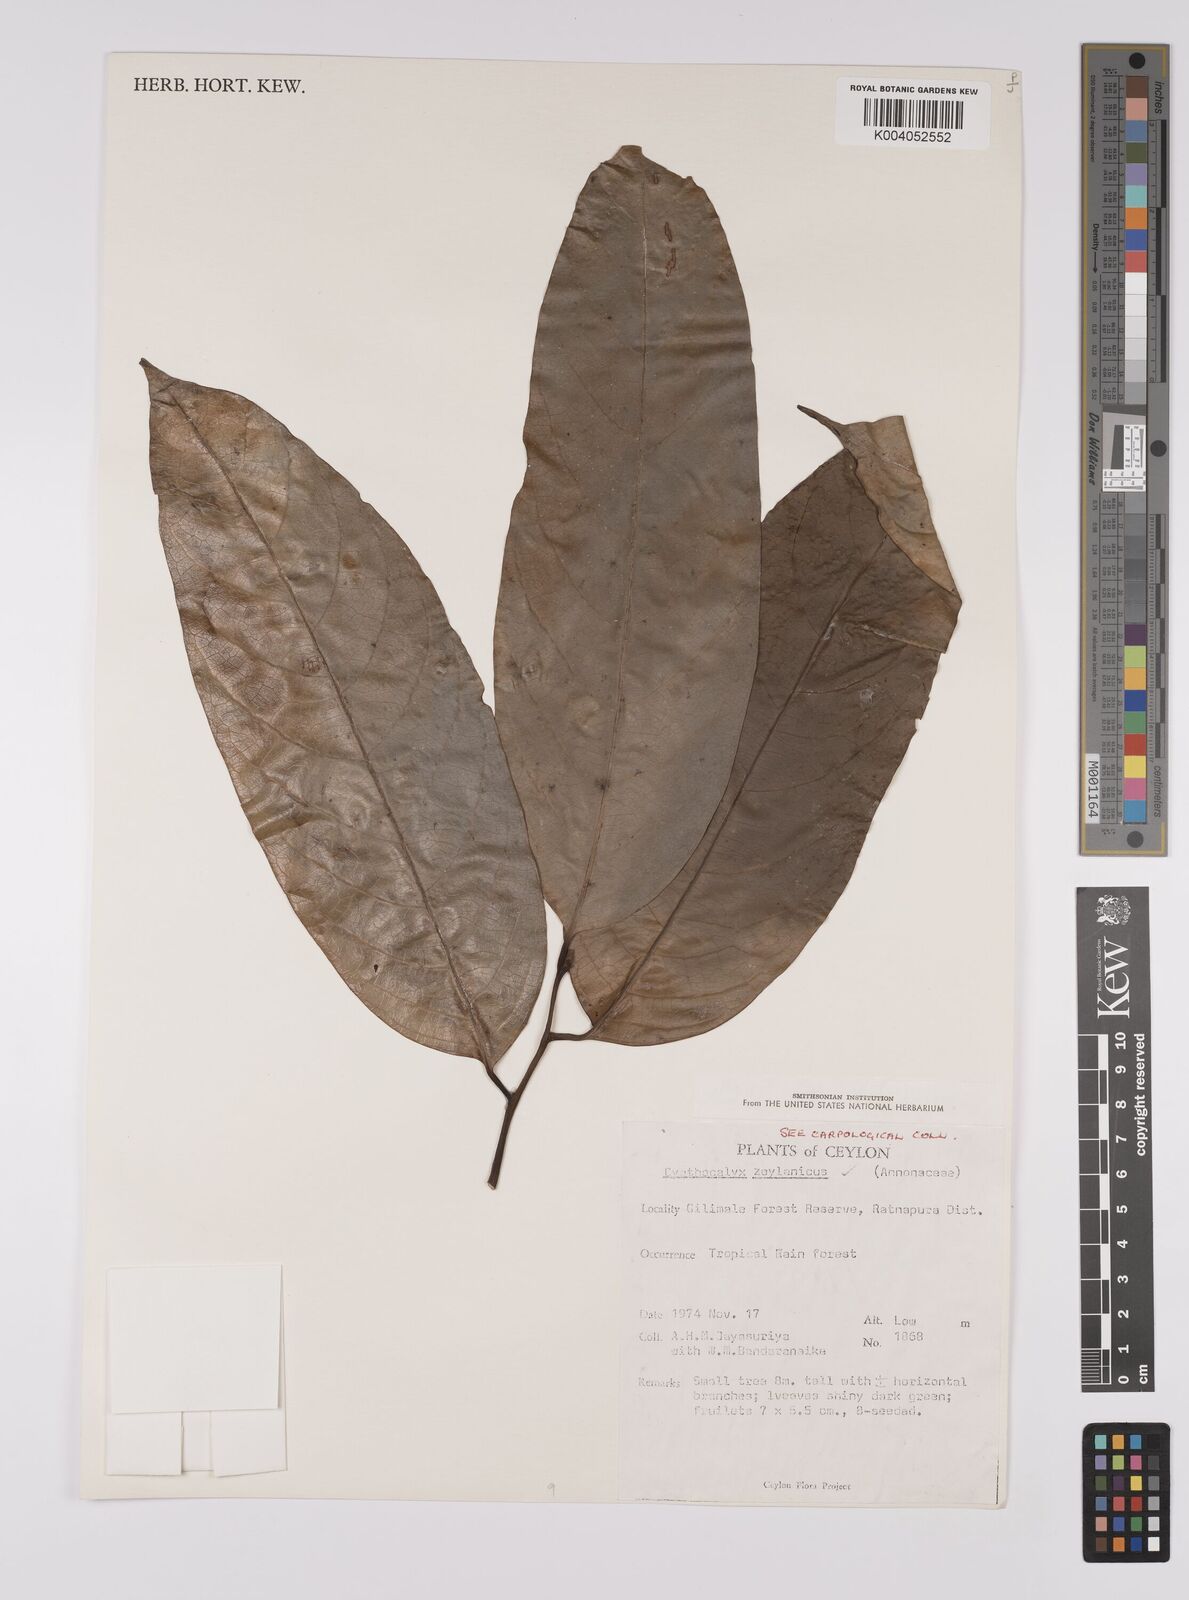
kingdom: Plantae
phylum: Tracheophyta
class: Magnoliopsida
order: Magnoliales
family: Annonaceae
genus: Cyathocalyx
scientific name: Cyathocalyx zeylanicus
